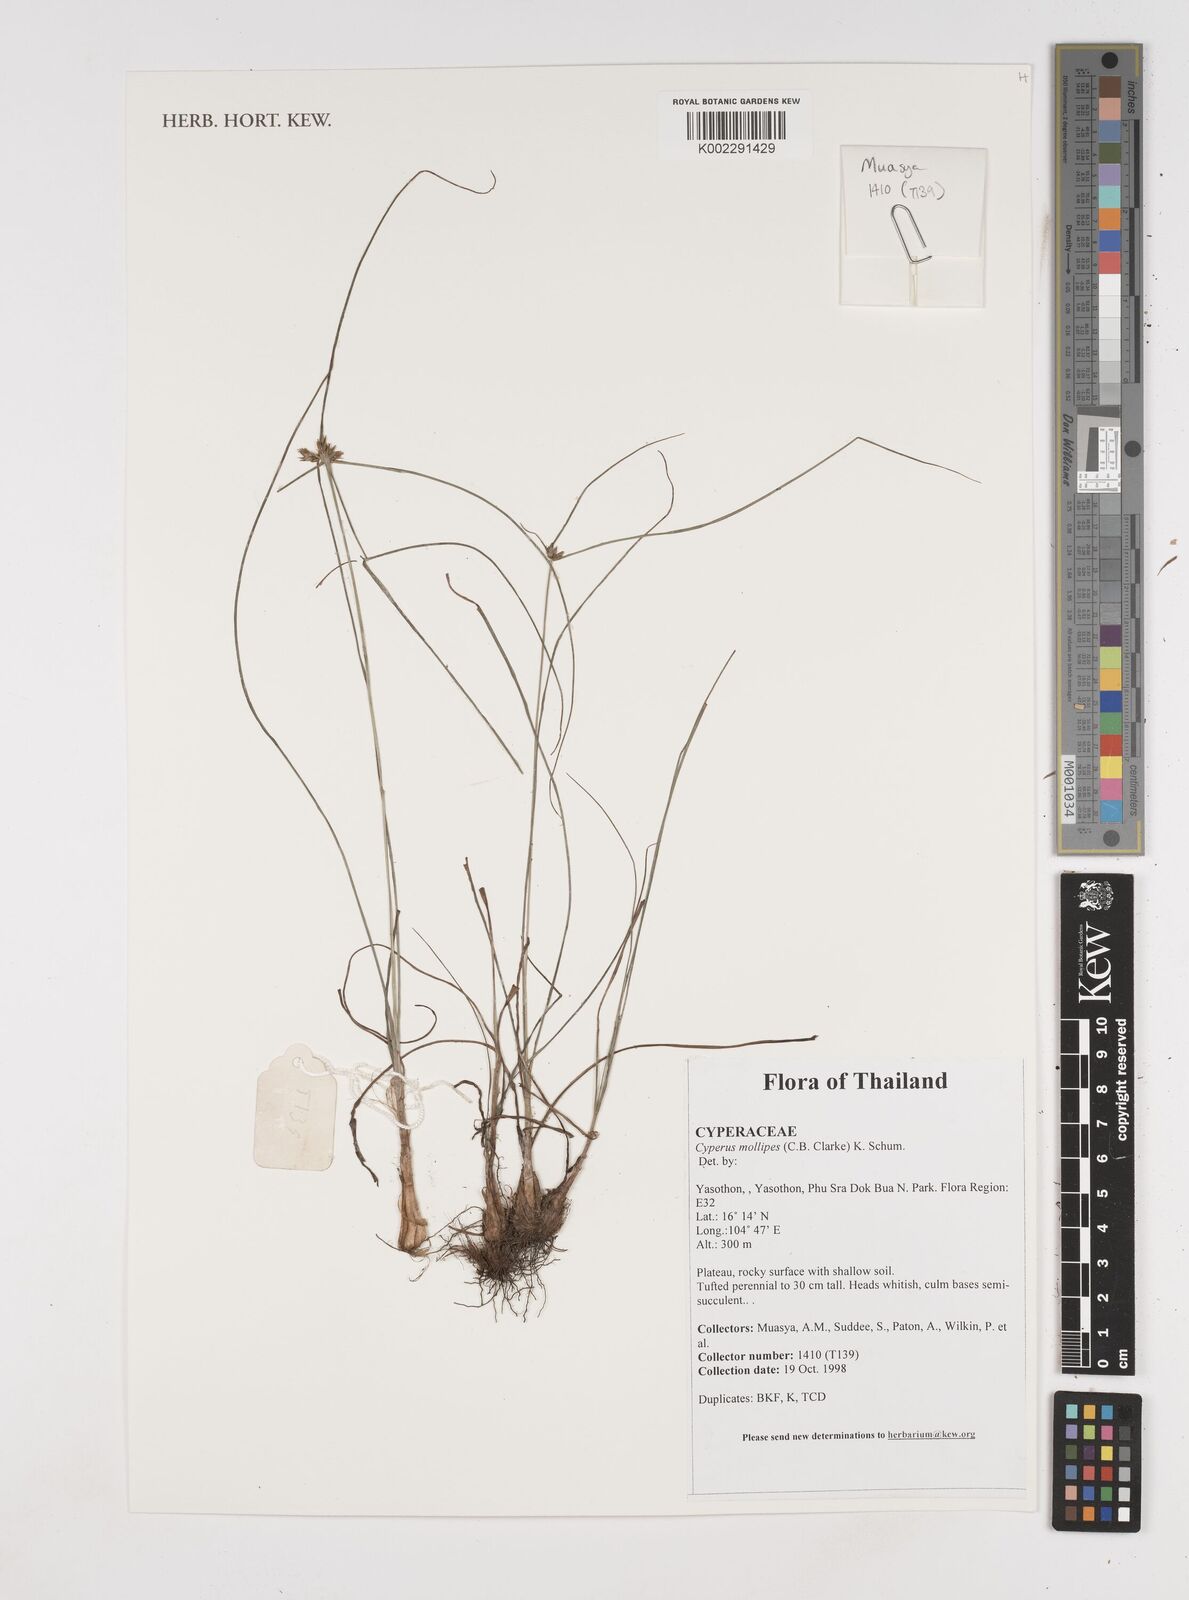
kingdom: Plantae
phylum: Tracheophyta
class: Liliopsida
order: Poales
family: Cyperaceae
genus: Cyperus
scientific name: Cyperus mollipes
